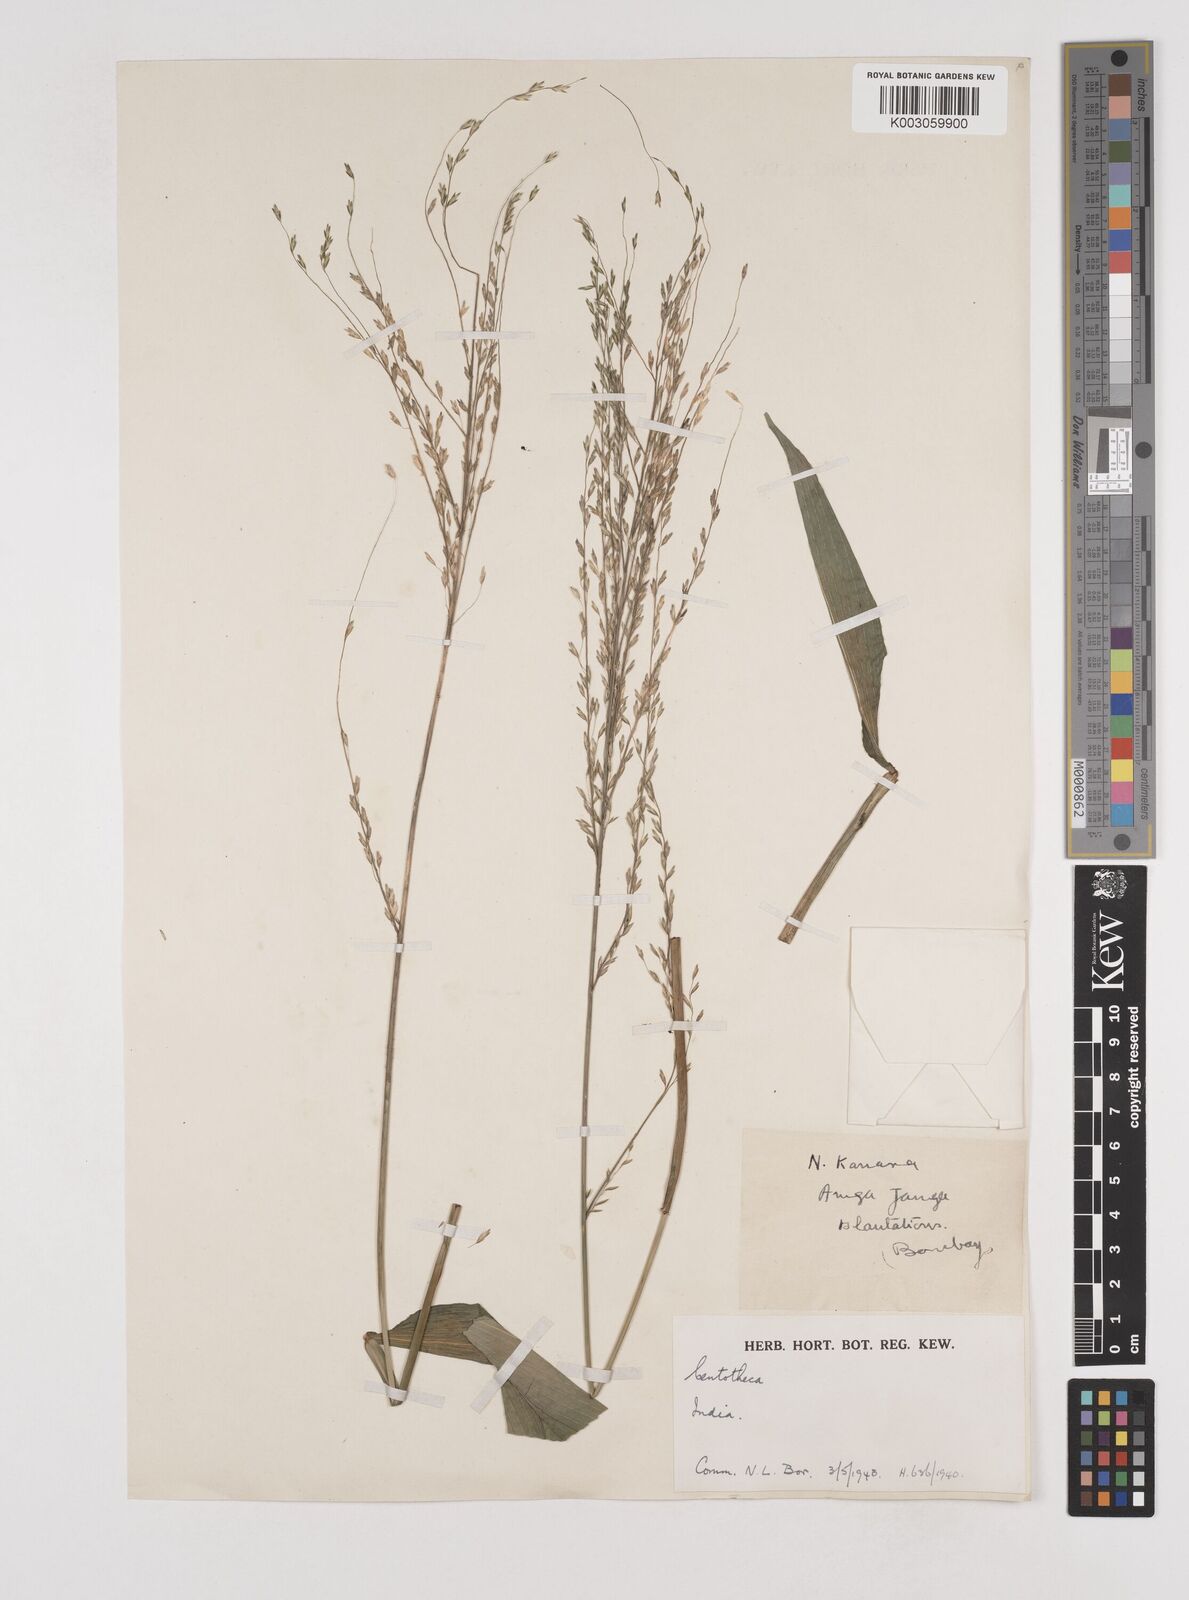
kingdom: Plantae
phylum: Tracheophyta
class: Liliopsida
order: Poales
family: Poaceae
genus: Centotheca
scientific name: Centotheca lappacea
